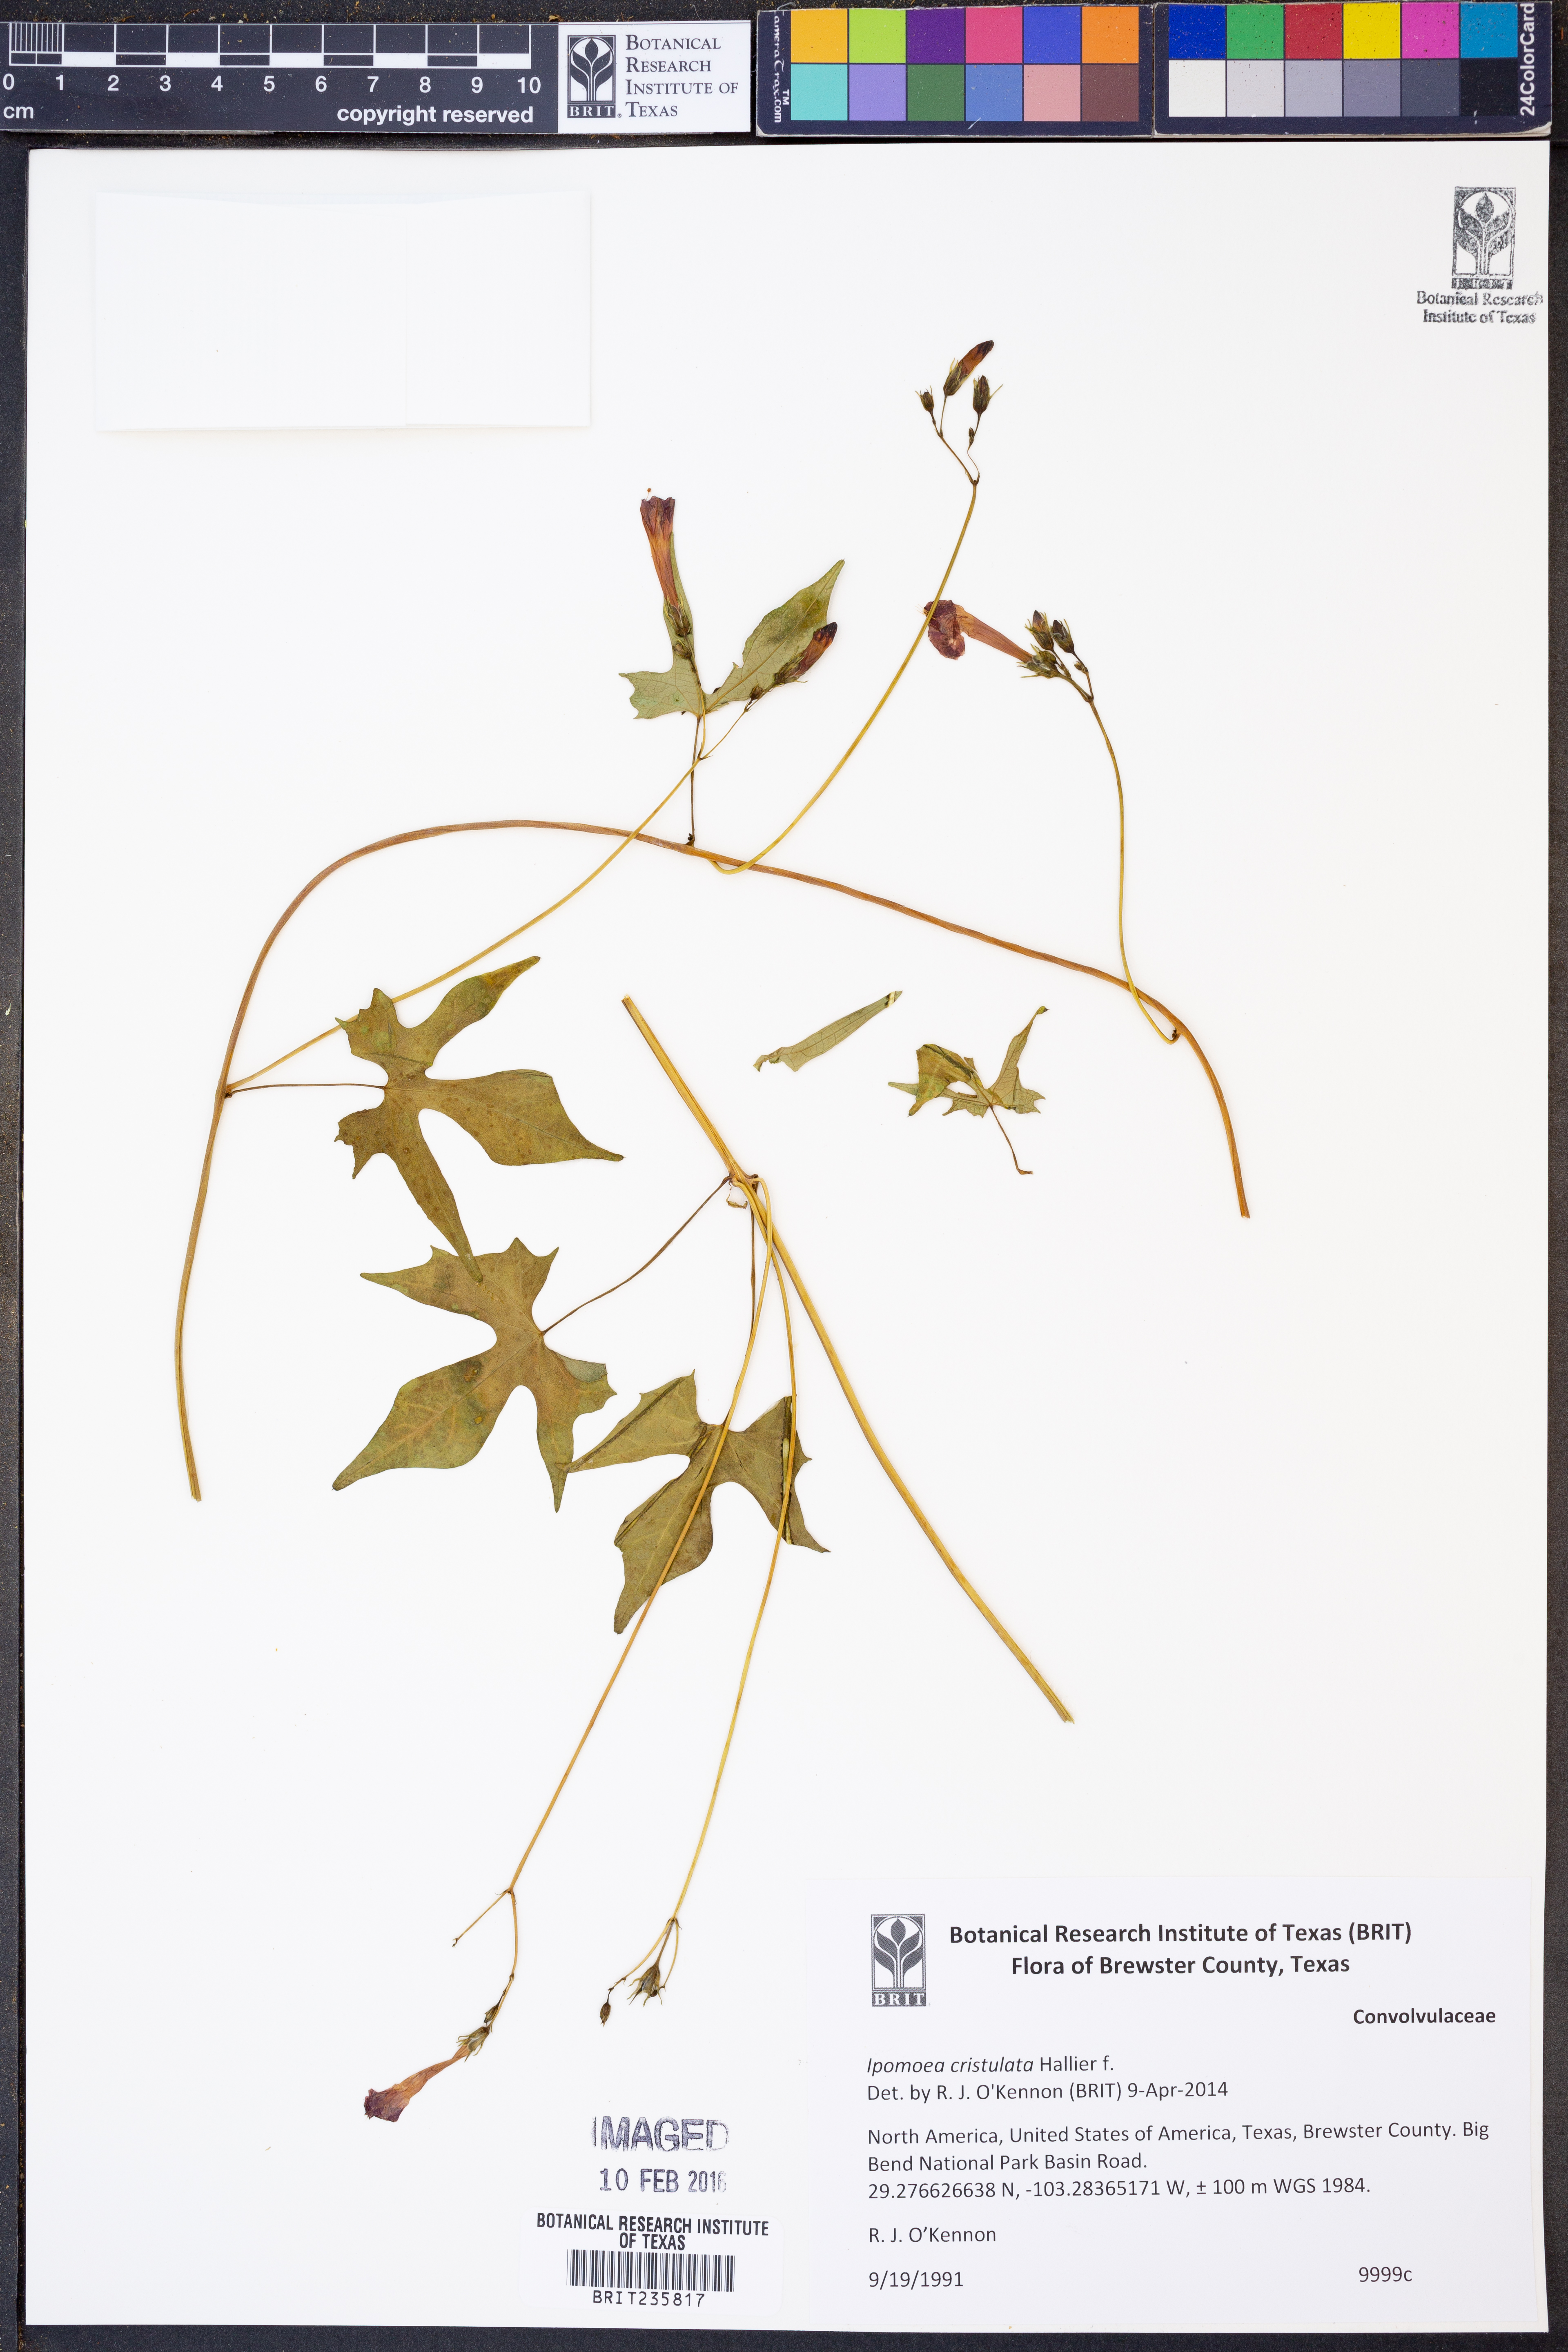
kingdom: Plantae
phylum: Tracheophyta
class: Magnoliopsida
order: Solanales
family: Convolvulaceae
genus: Ipomoea
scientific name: Ipomoea cristulata
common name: Trans-pecos morning-glory
